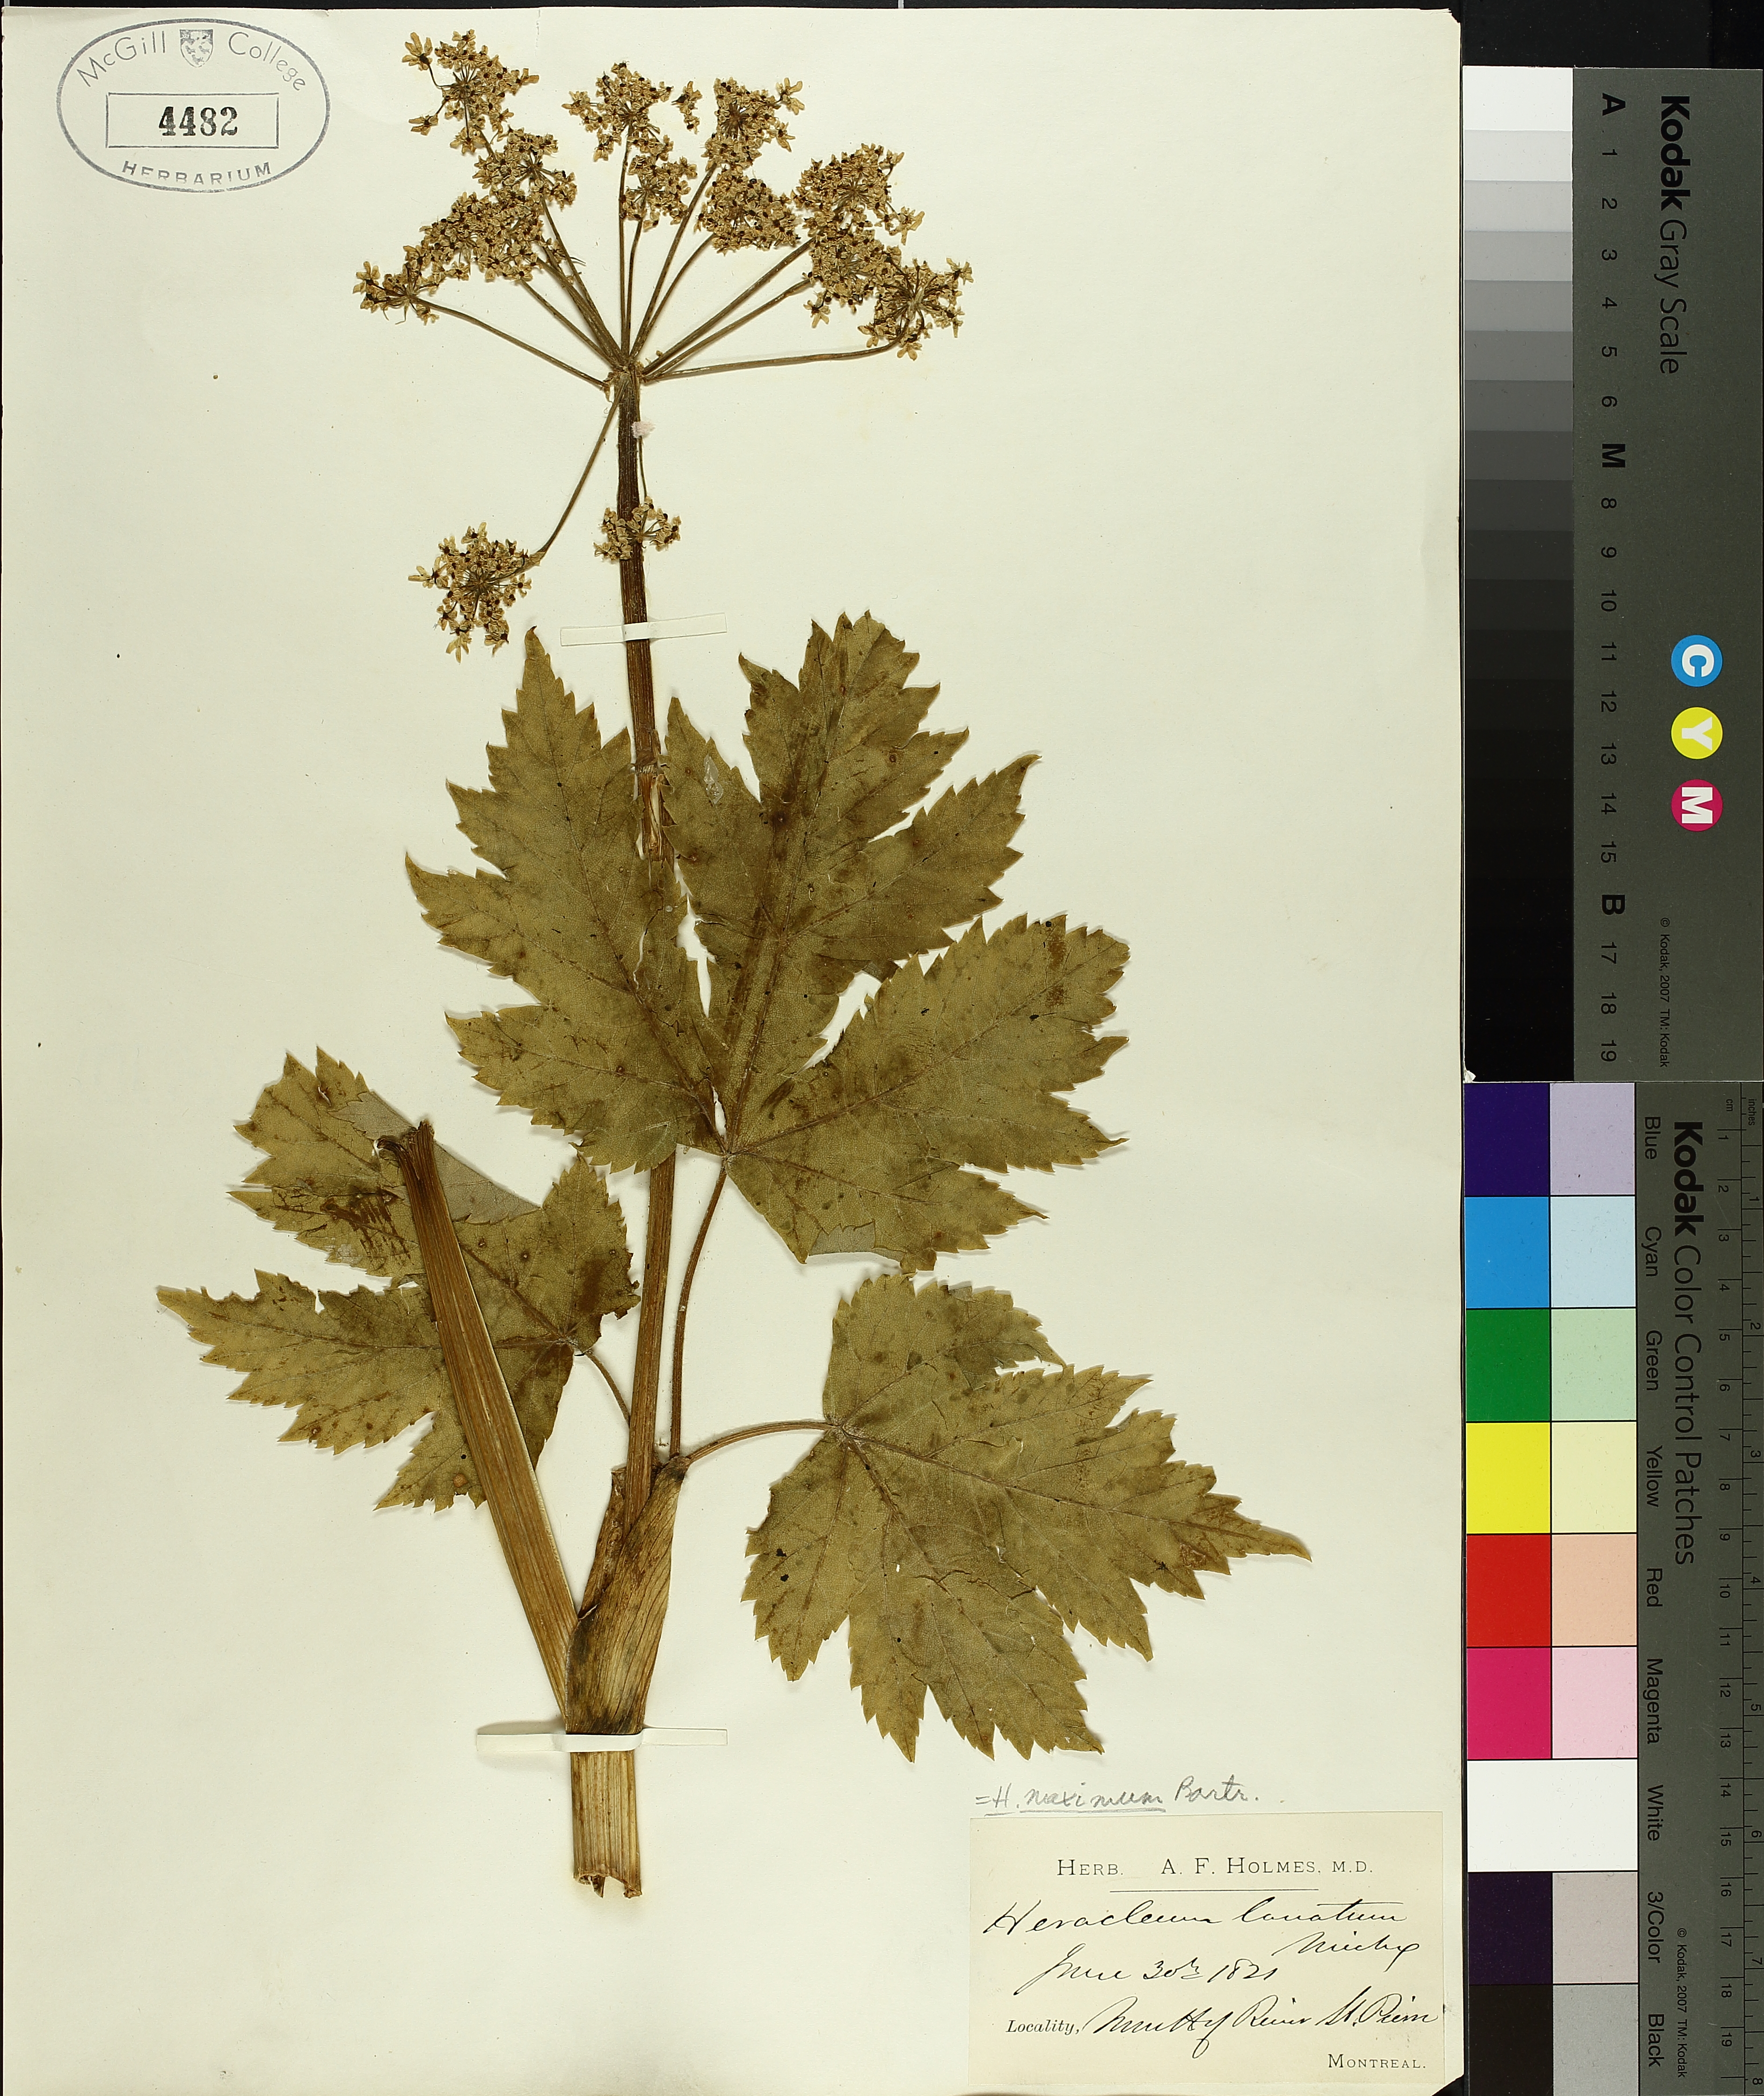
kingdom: Plantae
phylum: Tracheophyta
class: Magnoliopsida
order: Apiales
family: Apiaceae
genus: Heracleum
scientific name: Heracleum maximum
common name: American cow parsnip
